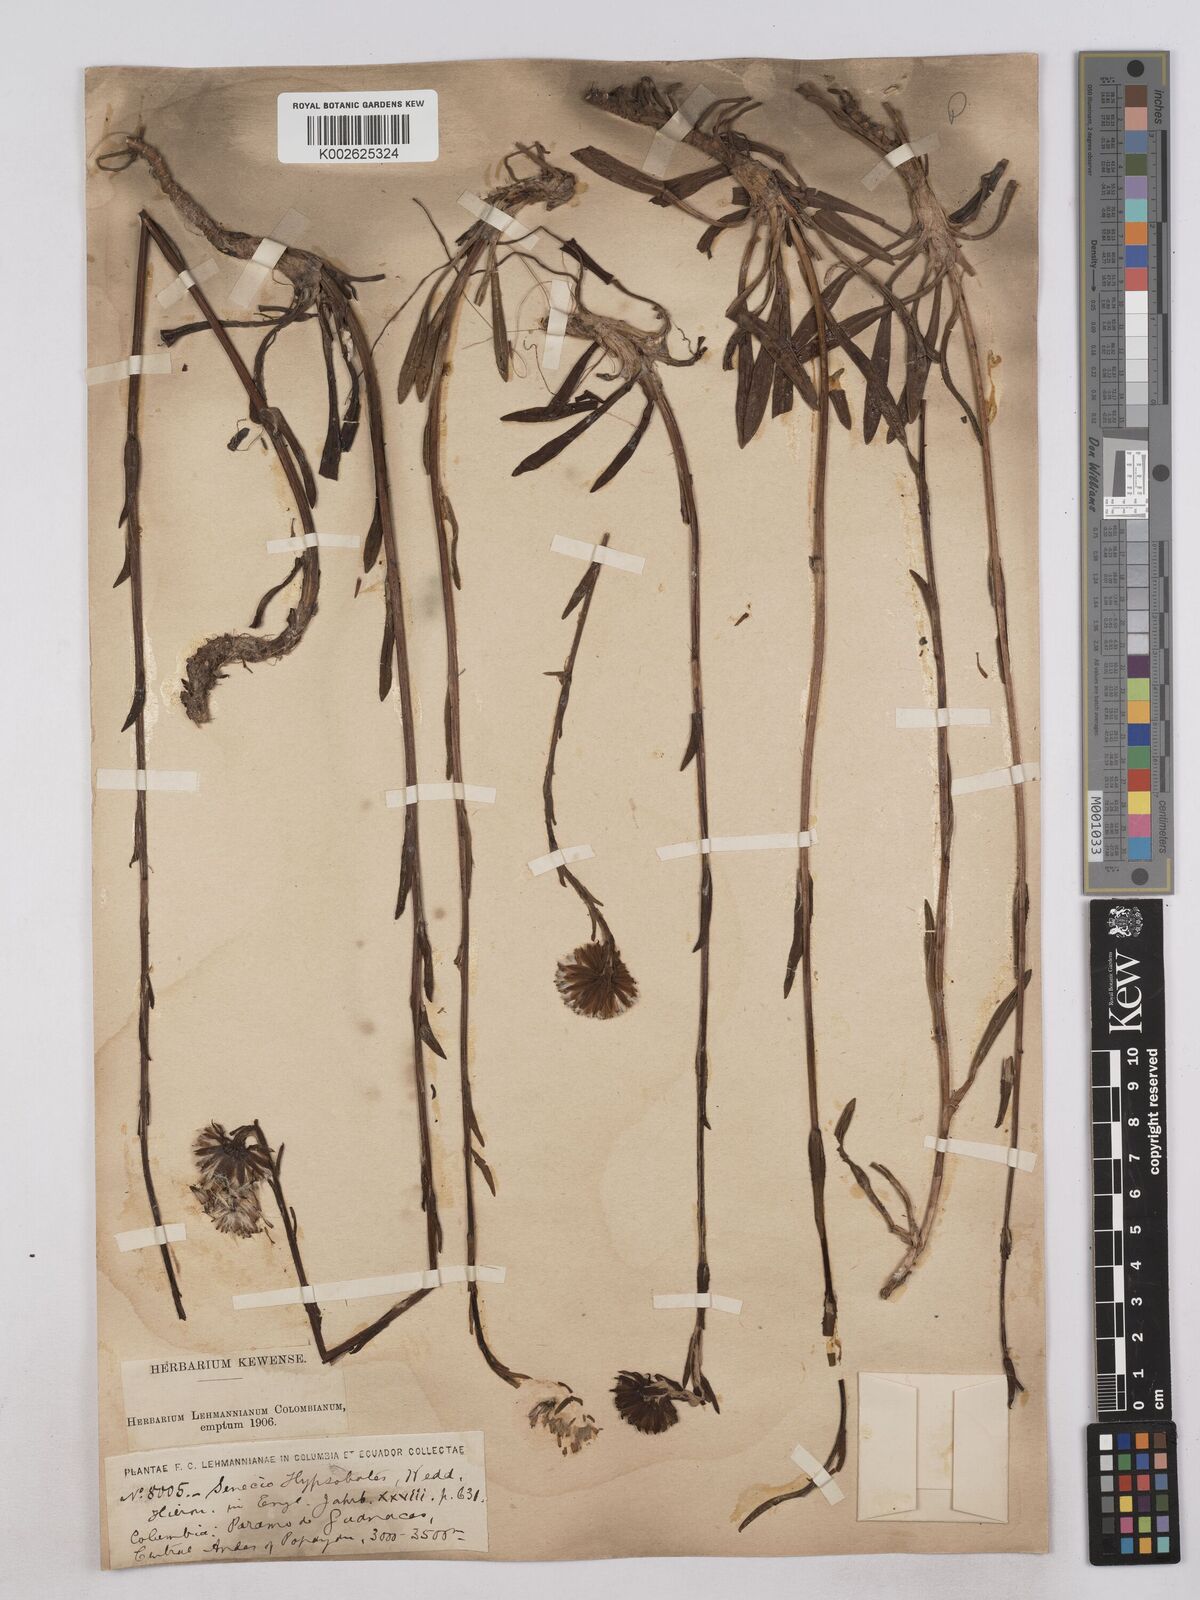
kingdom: Plantae
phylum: Tracheophyta
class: Magnoliopsida
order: Asterales
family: Asteraceae
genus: Senecio
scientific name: Senecio hypsobates
